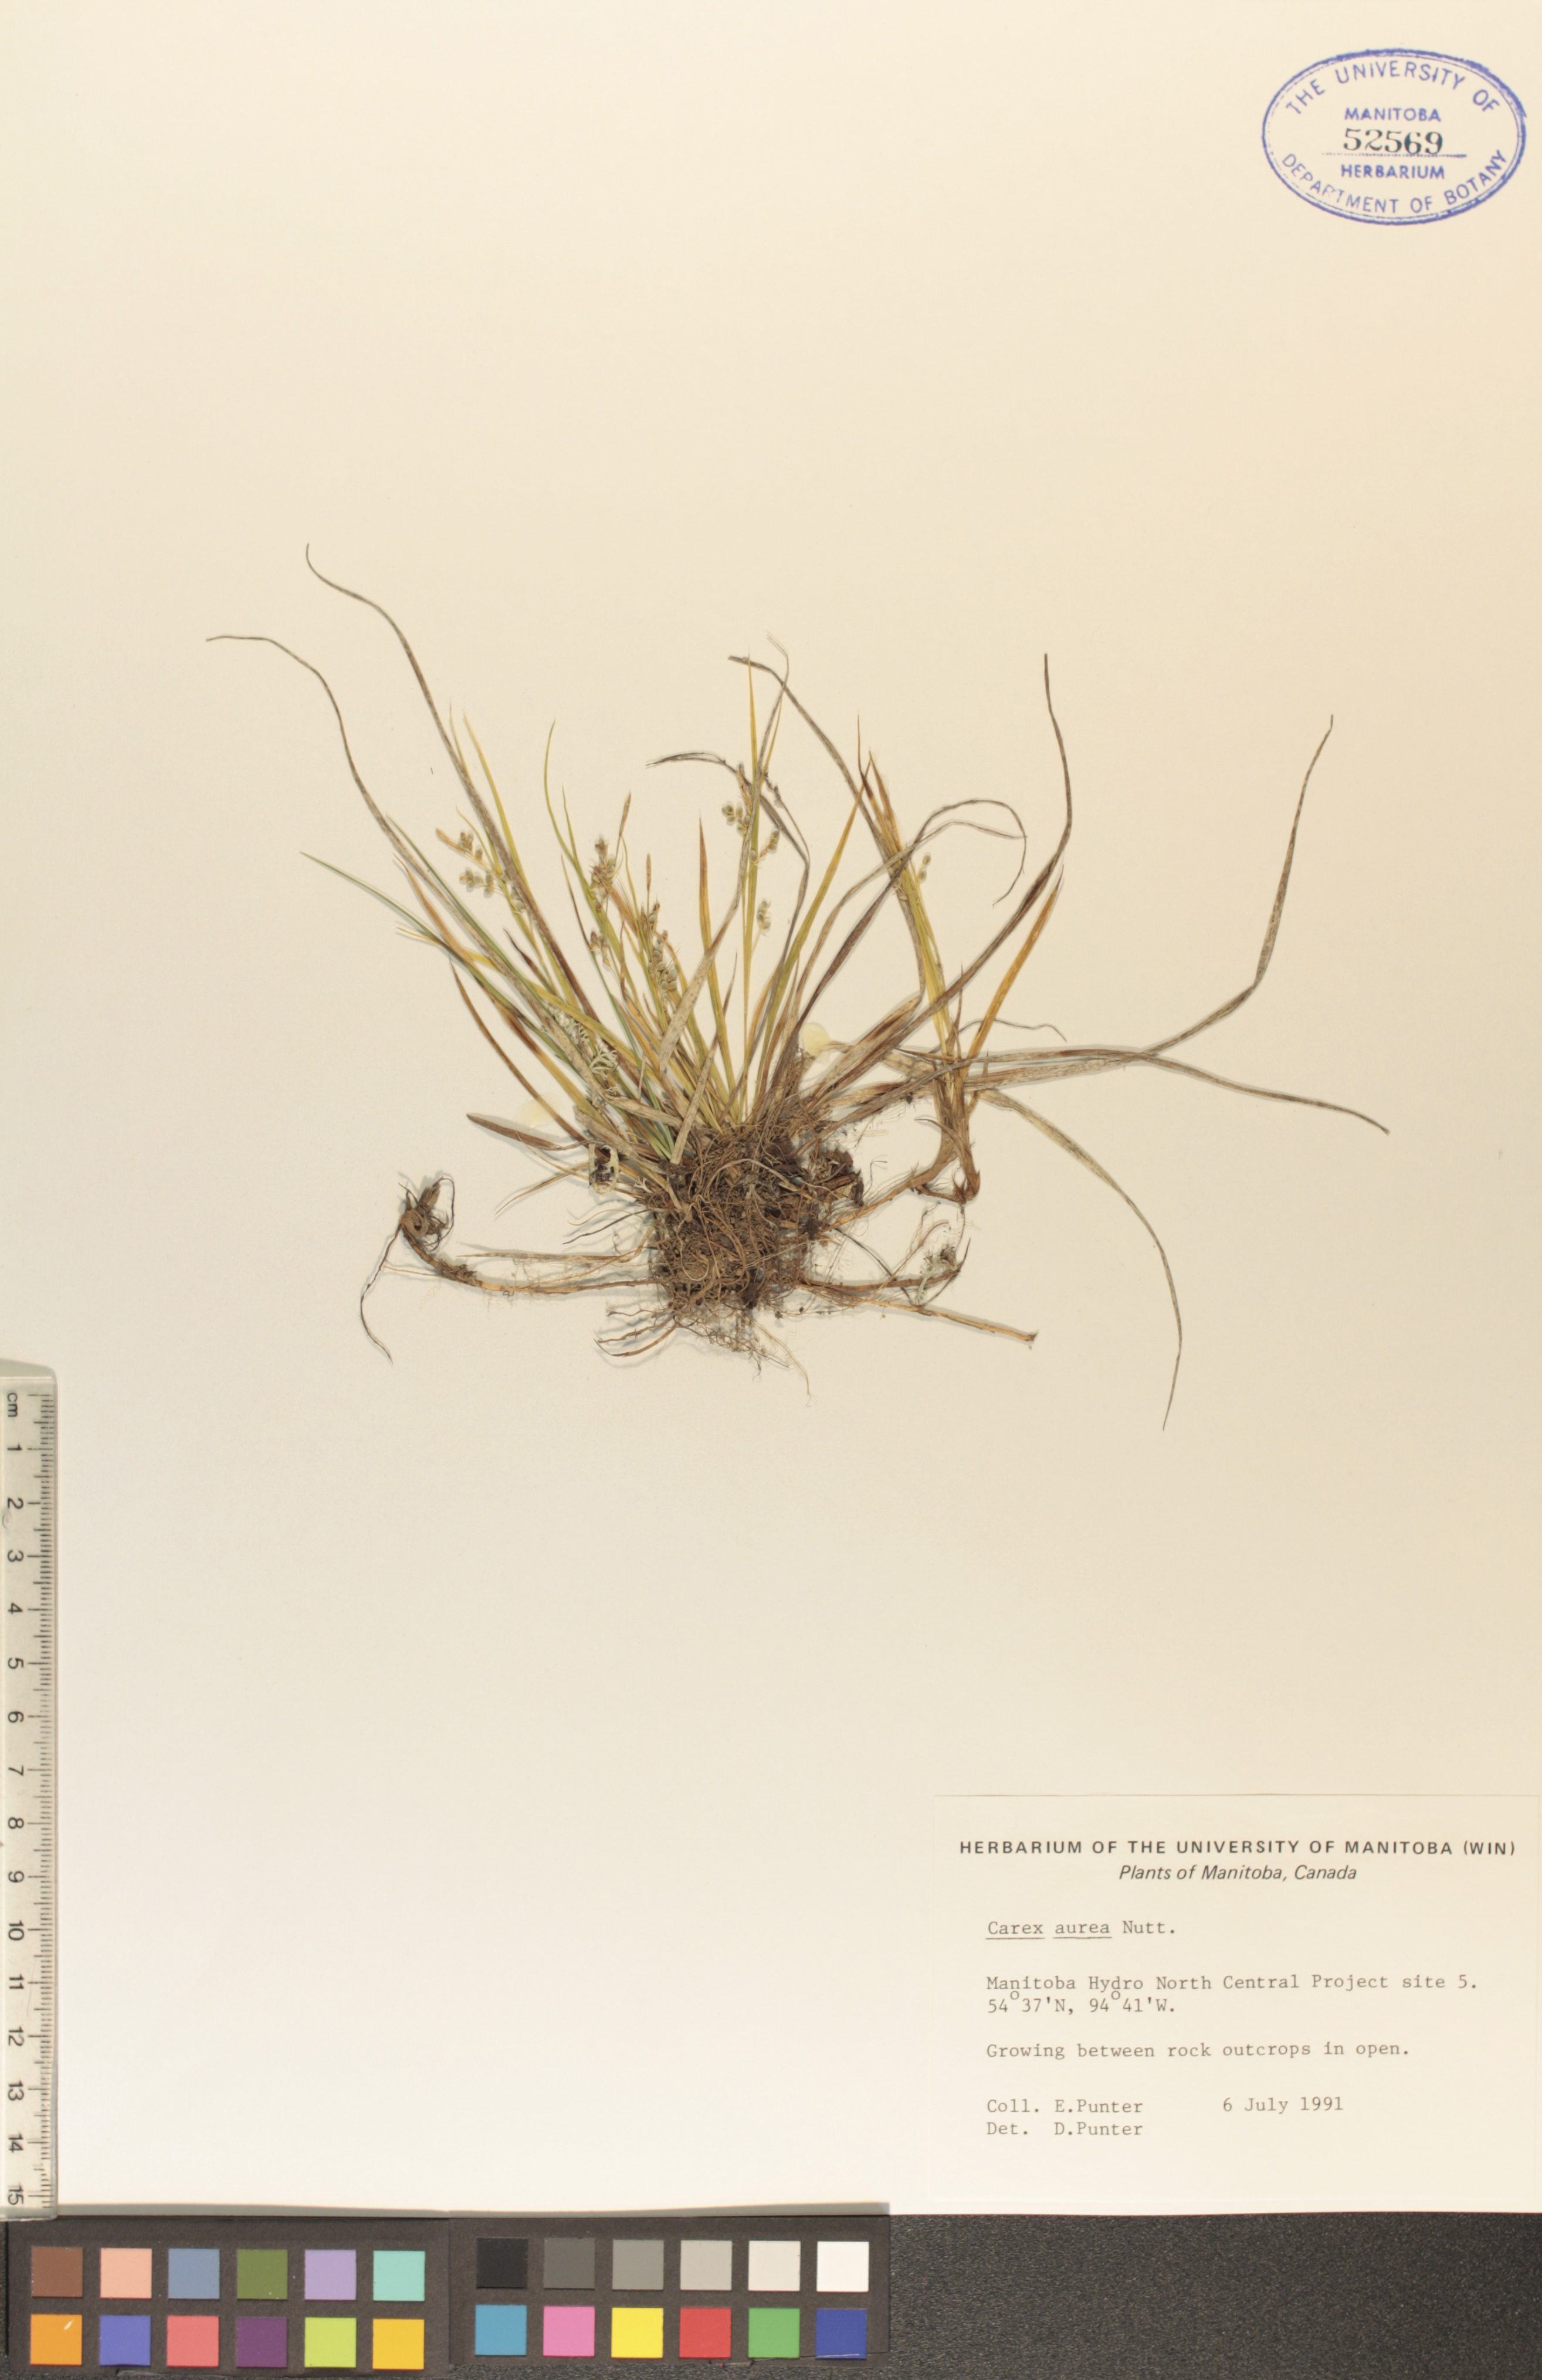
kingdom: Plantae
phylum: Tracheophyta
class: Liliopsida
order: Poales
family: Cyperaceae
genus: Carex
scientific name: Carex aurea
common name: Golden sedge
